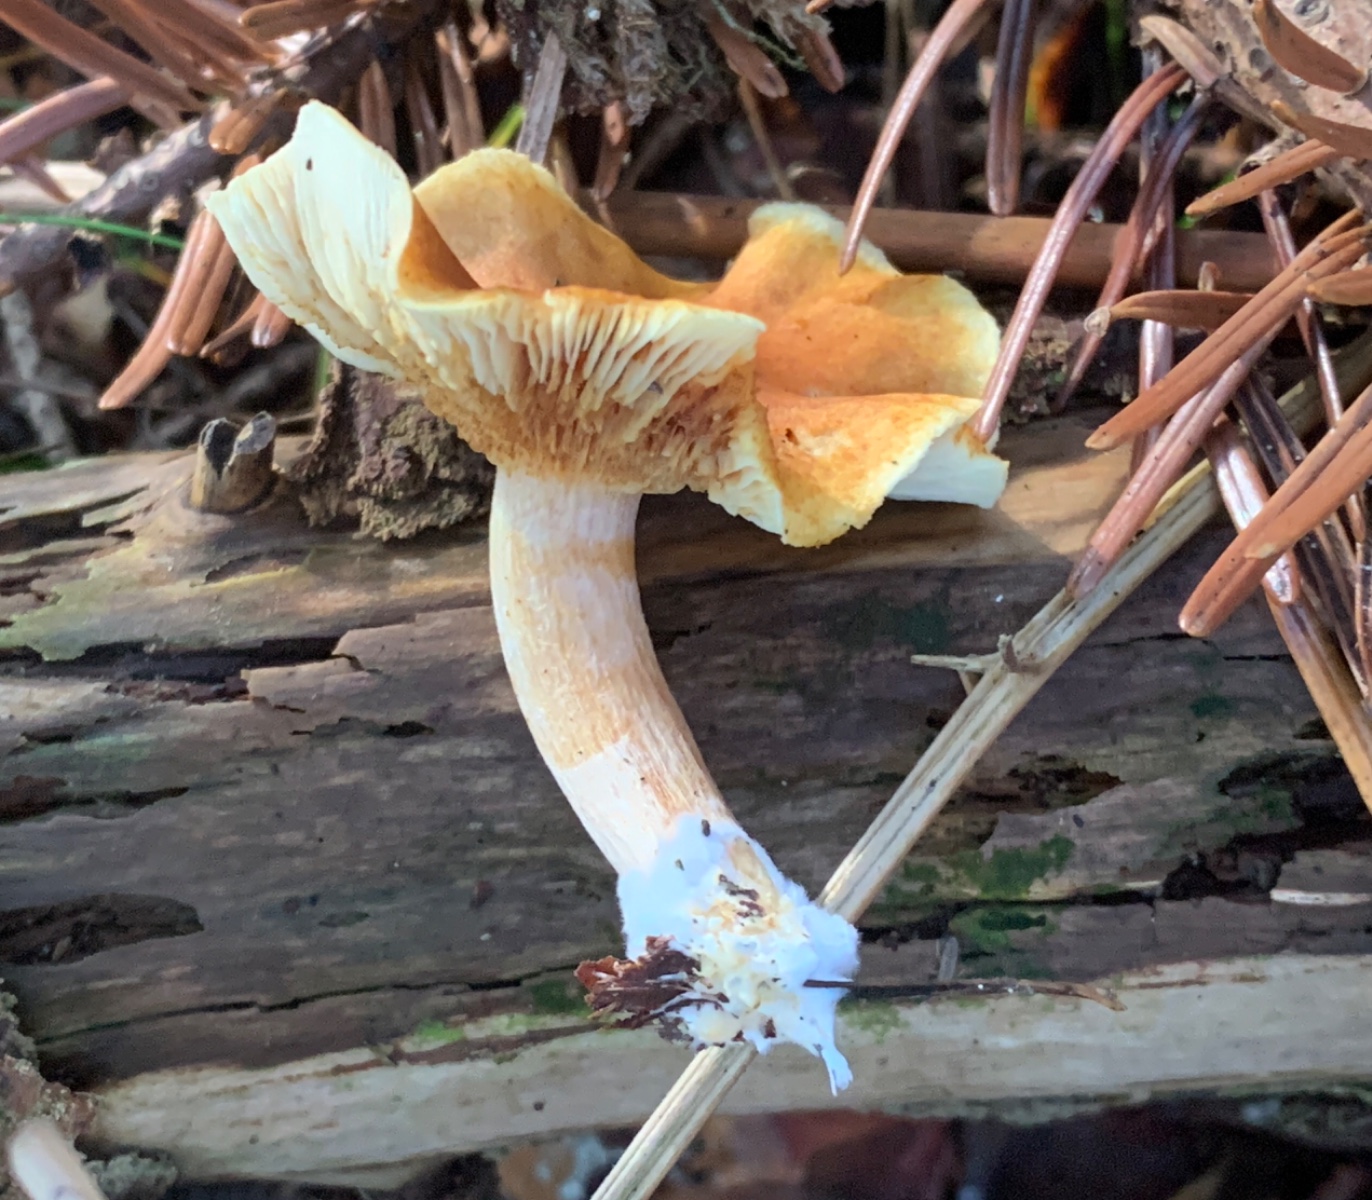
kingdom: Fungi
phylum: Basidiomycota
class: Agaricomycetes
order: Agaricales
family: Hymenogastraceae
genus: Gymnopilus
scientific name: Gymnopilus penetrans
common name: plettet flammehat
